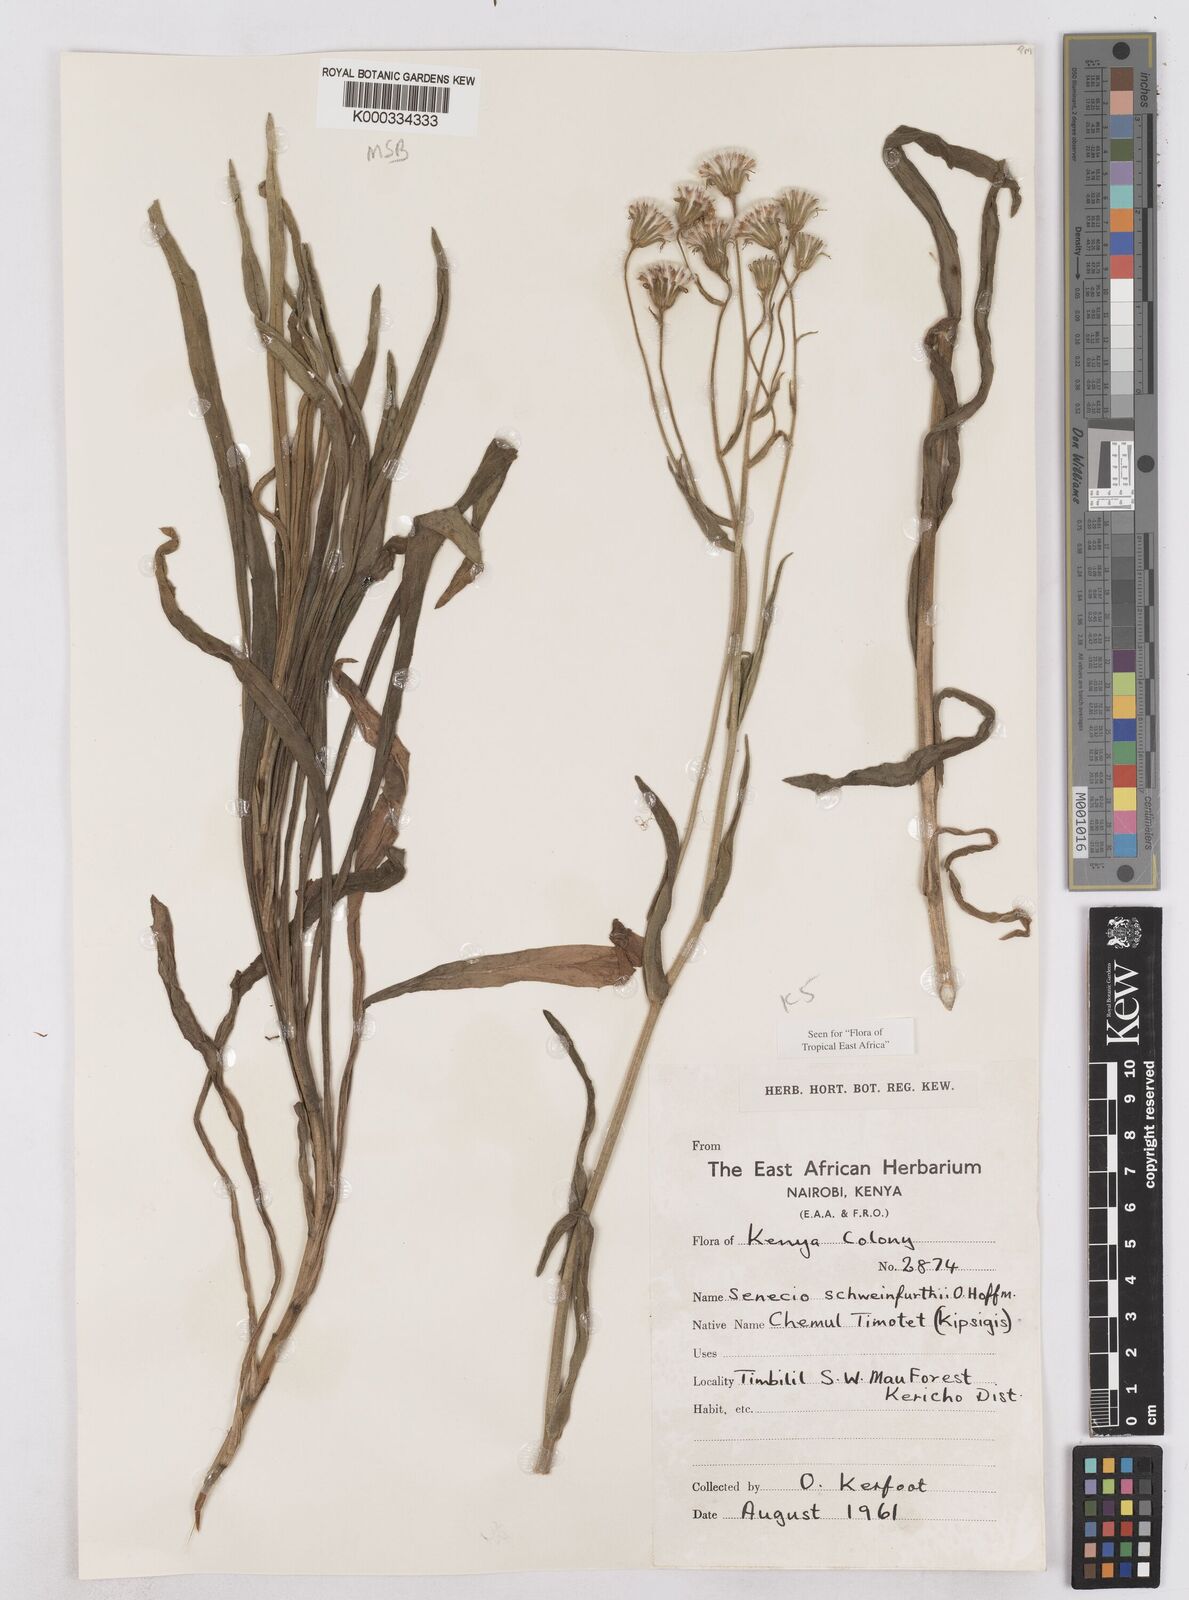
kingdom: Plantae
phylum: Tracheophyta
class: Magnoliopsida
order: Asterales
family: Asteraceae
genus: Senecio
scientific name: Senecio schweinfurthii
